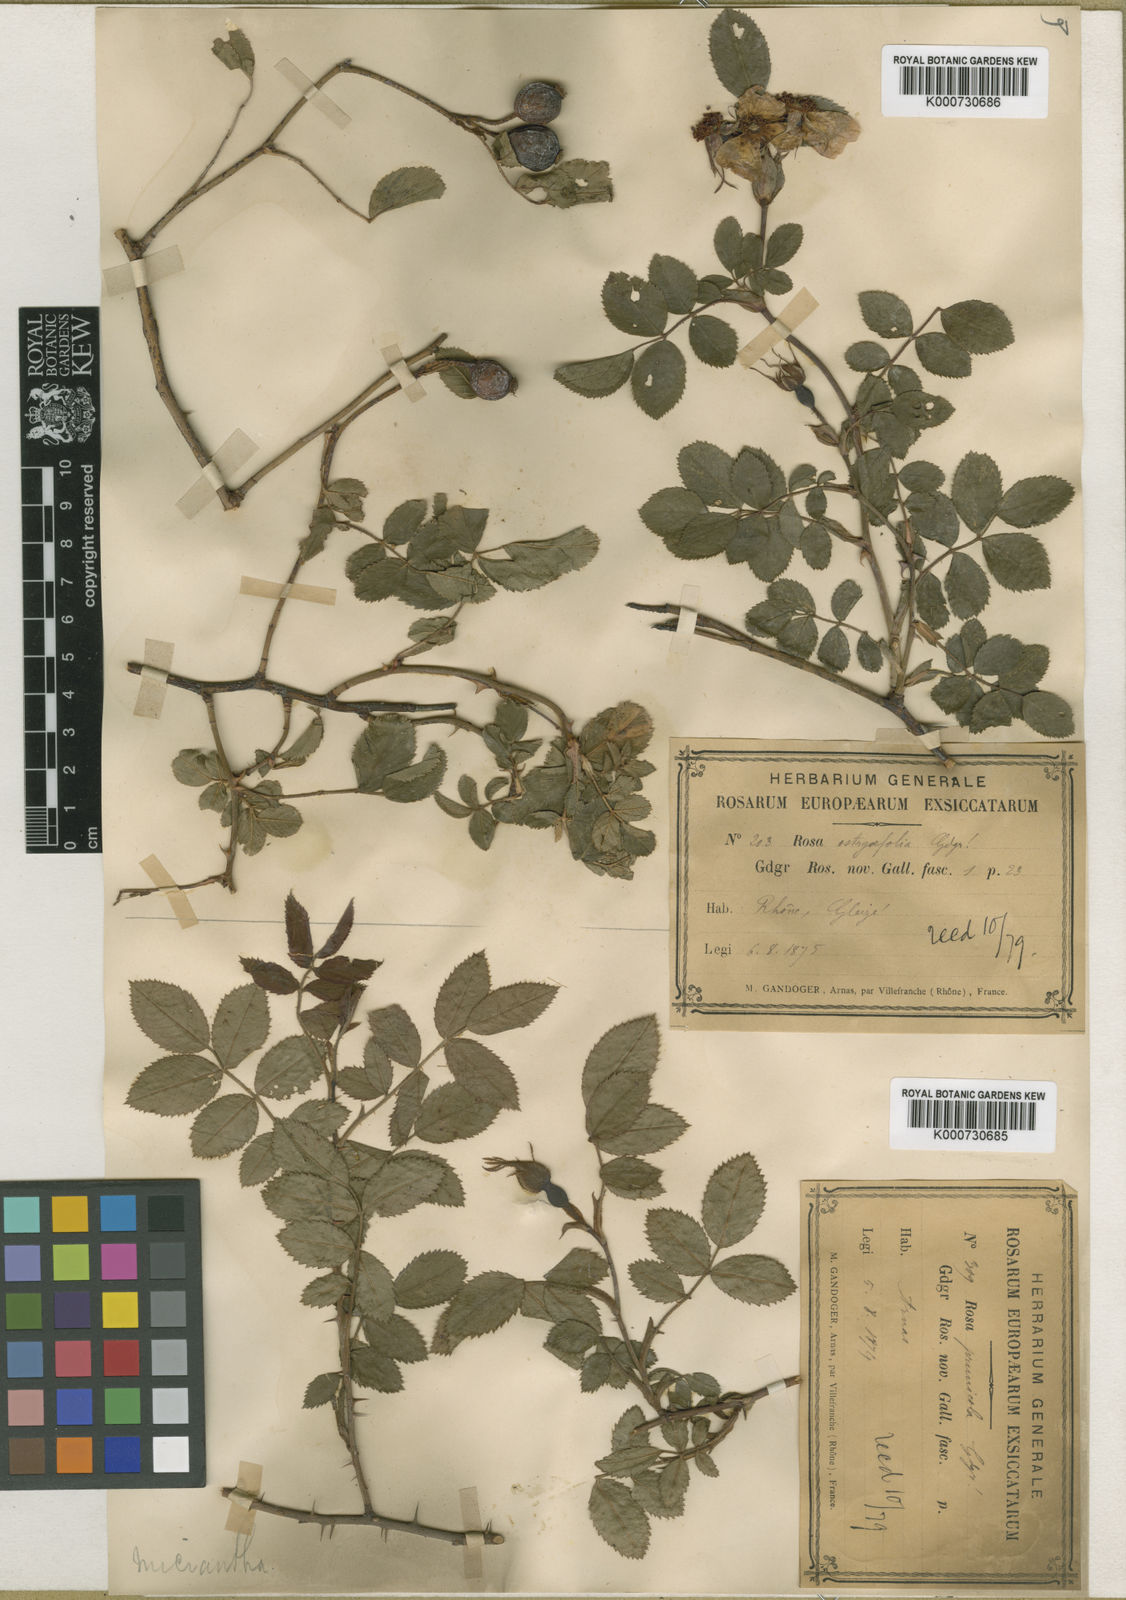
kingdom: Plantae
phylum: Tracheophyta
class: Magnoliopsida
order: Rosales
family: Rosaceae
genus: Rosa
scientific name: Rosa
